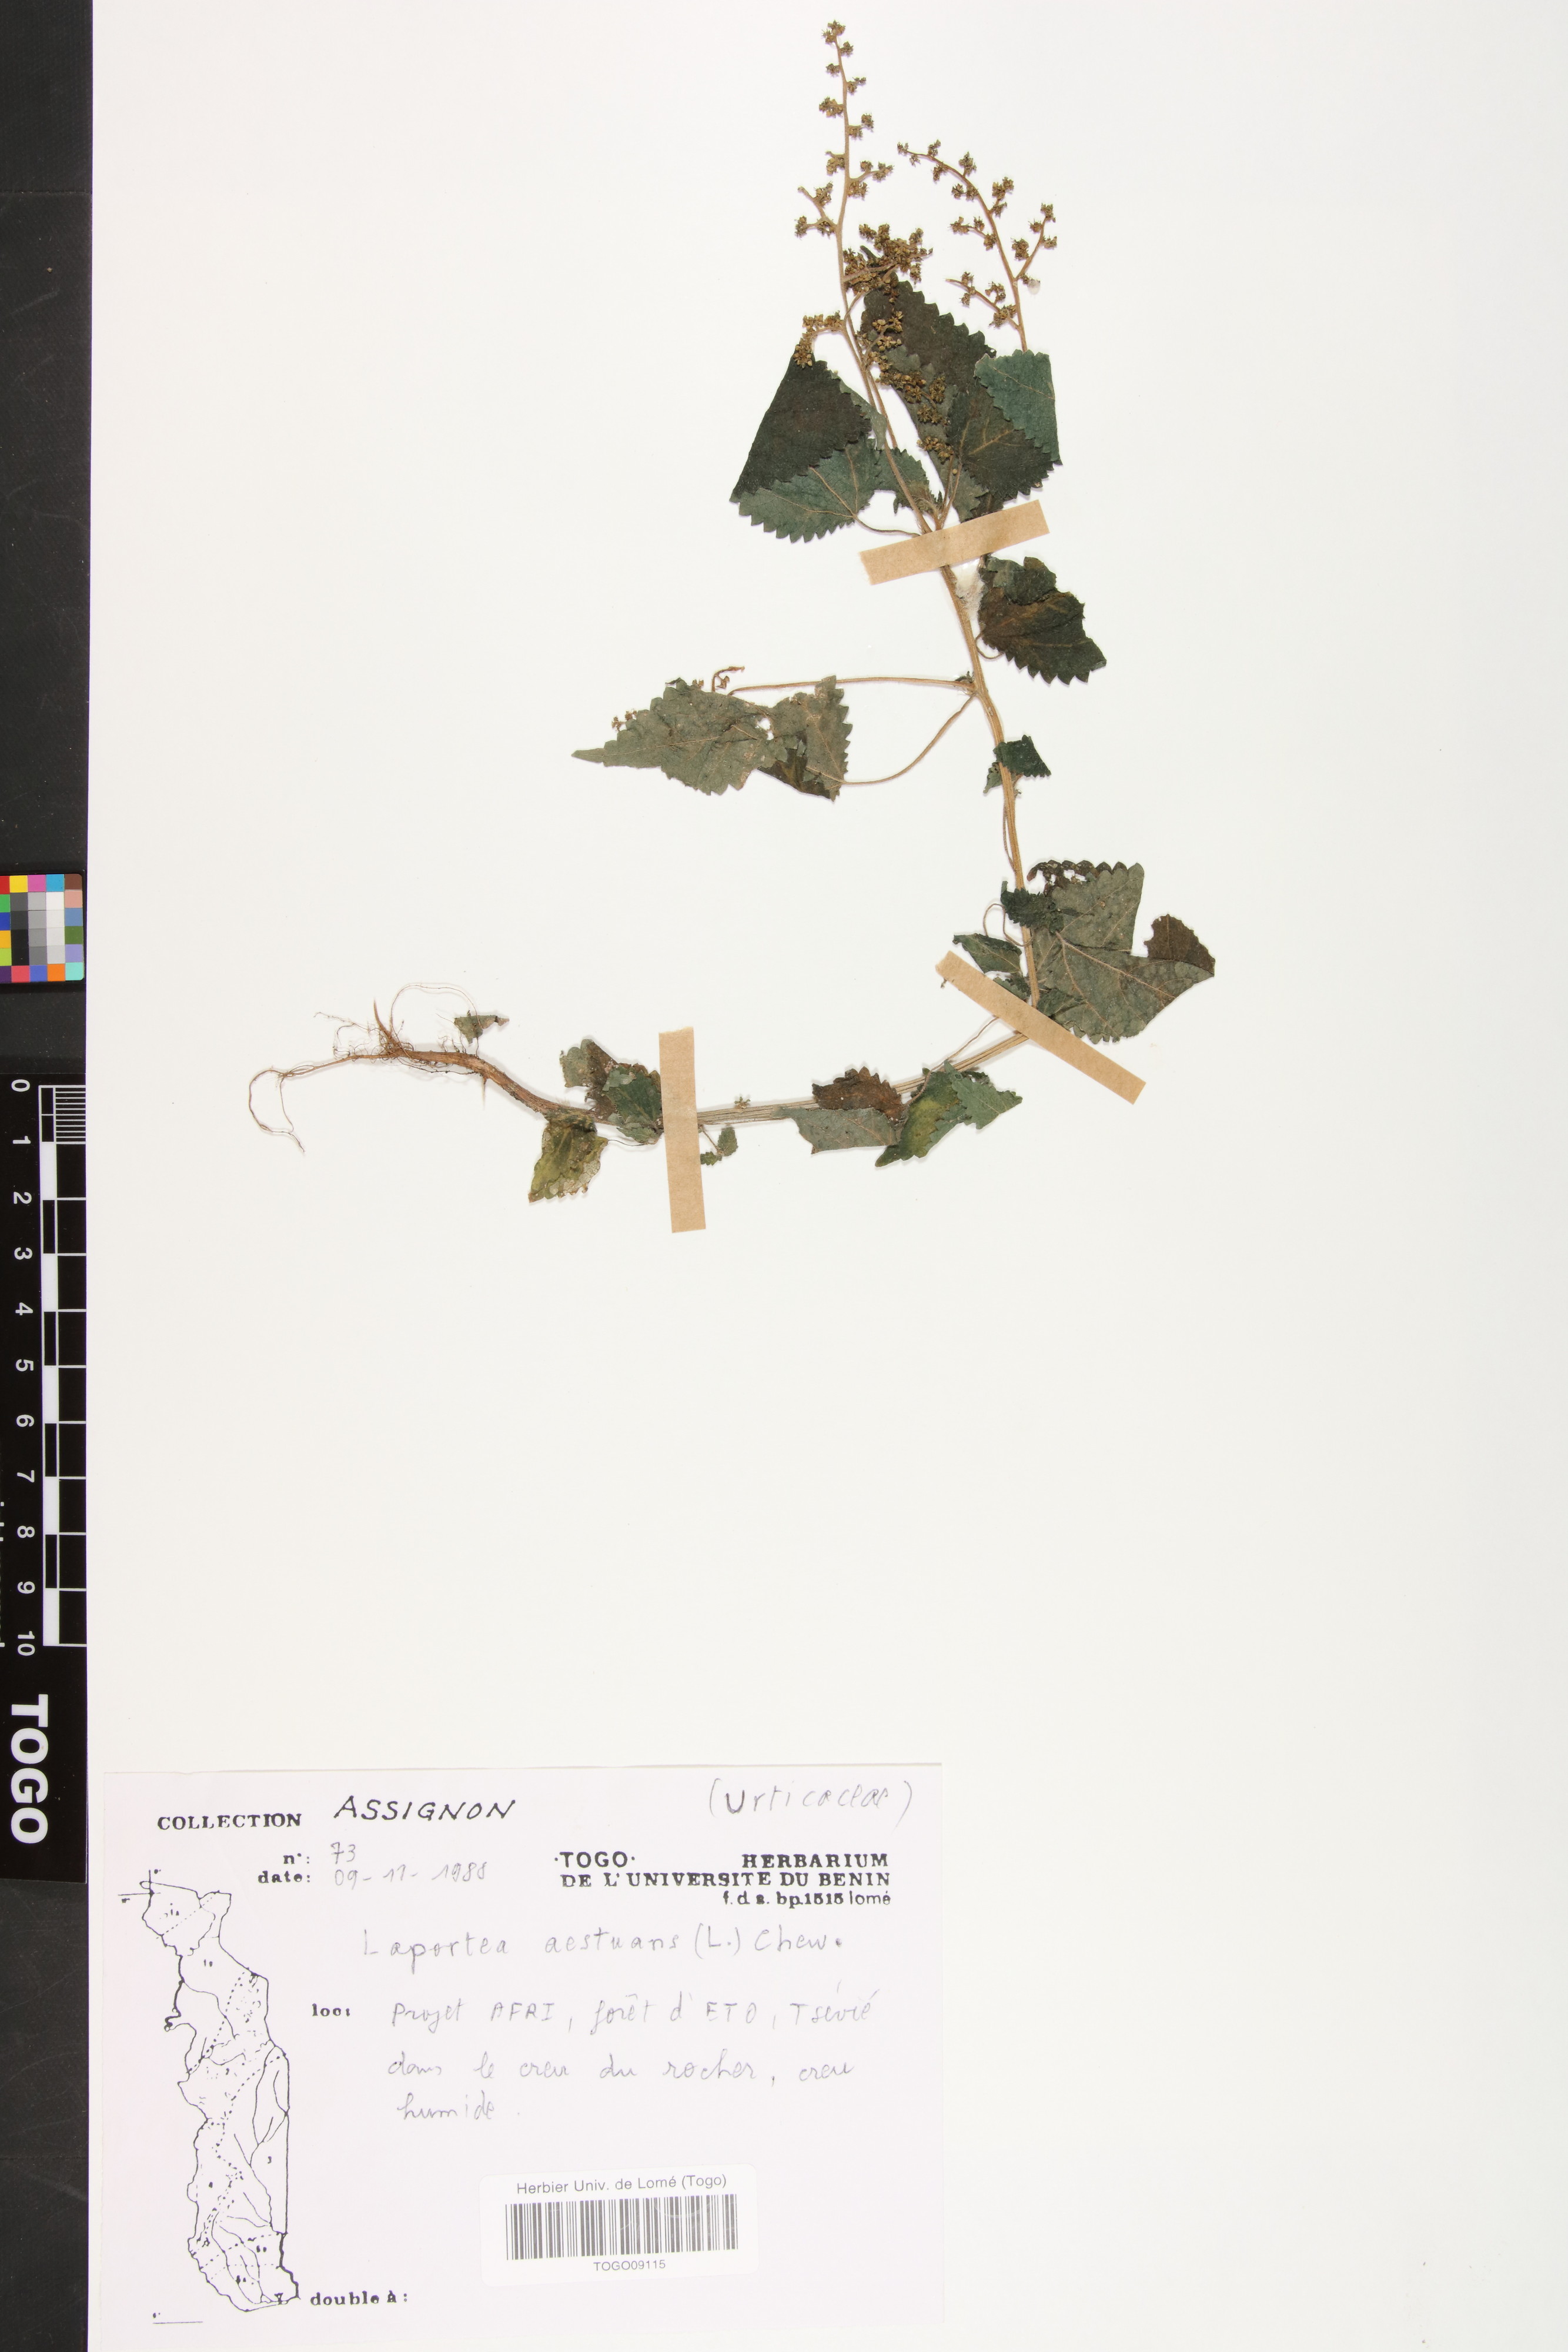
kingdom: Plantae
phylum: Tracheophyta
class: Magnoliopsida
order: Rosales
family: Urticaceae
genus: Laportea
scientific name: Laportea aestuans
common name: West indian woodnettle
